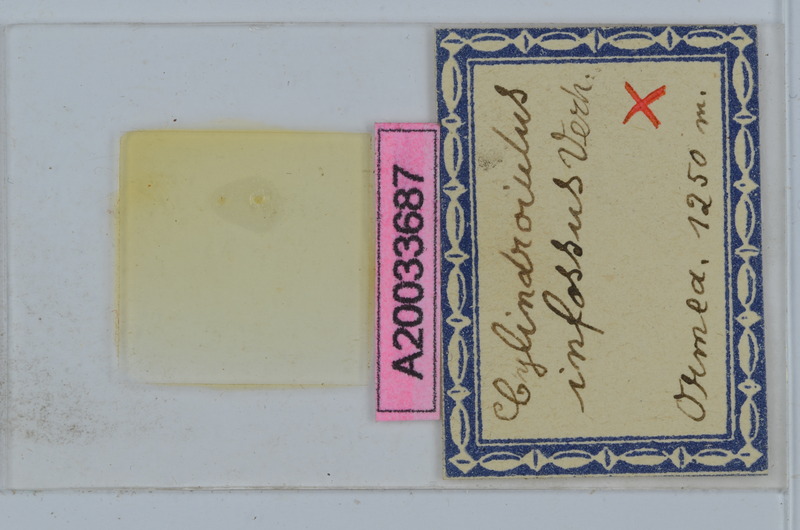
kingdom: Animalia
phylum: Arthropoda
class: Diplopoda
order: Julida
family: Julidae
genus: Allajulus
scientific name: Allajulus infossus
